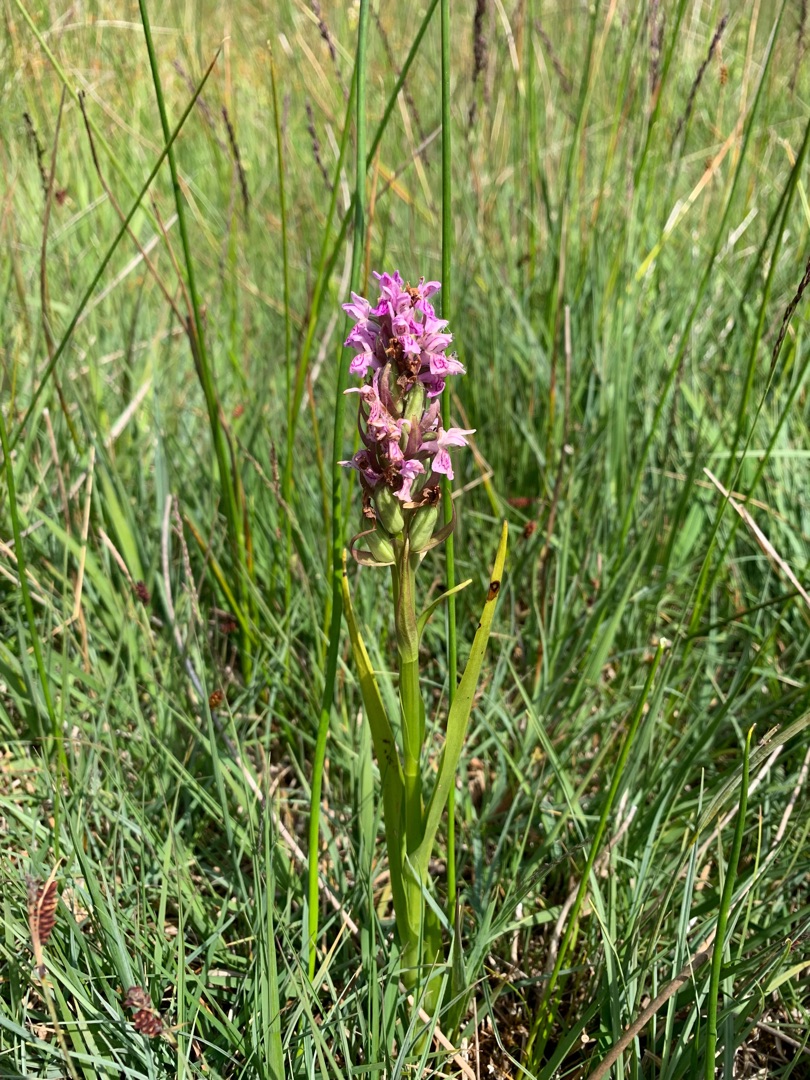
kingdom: Plantae
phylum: Tracheophyta
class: Liliopsida
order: Asparagales
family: Orchidaceae
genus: Dactylorhiza
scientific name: Dactylorhiza incarnata
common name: Kødfarvet gøgeurt
